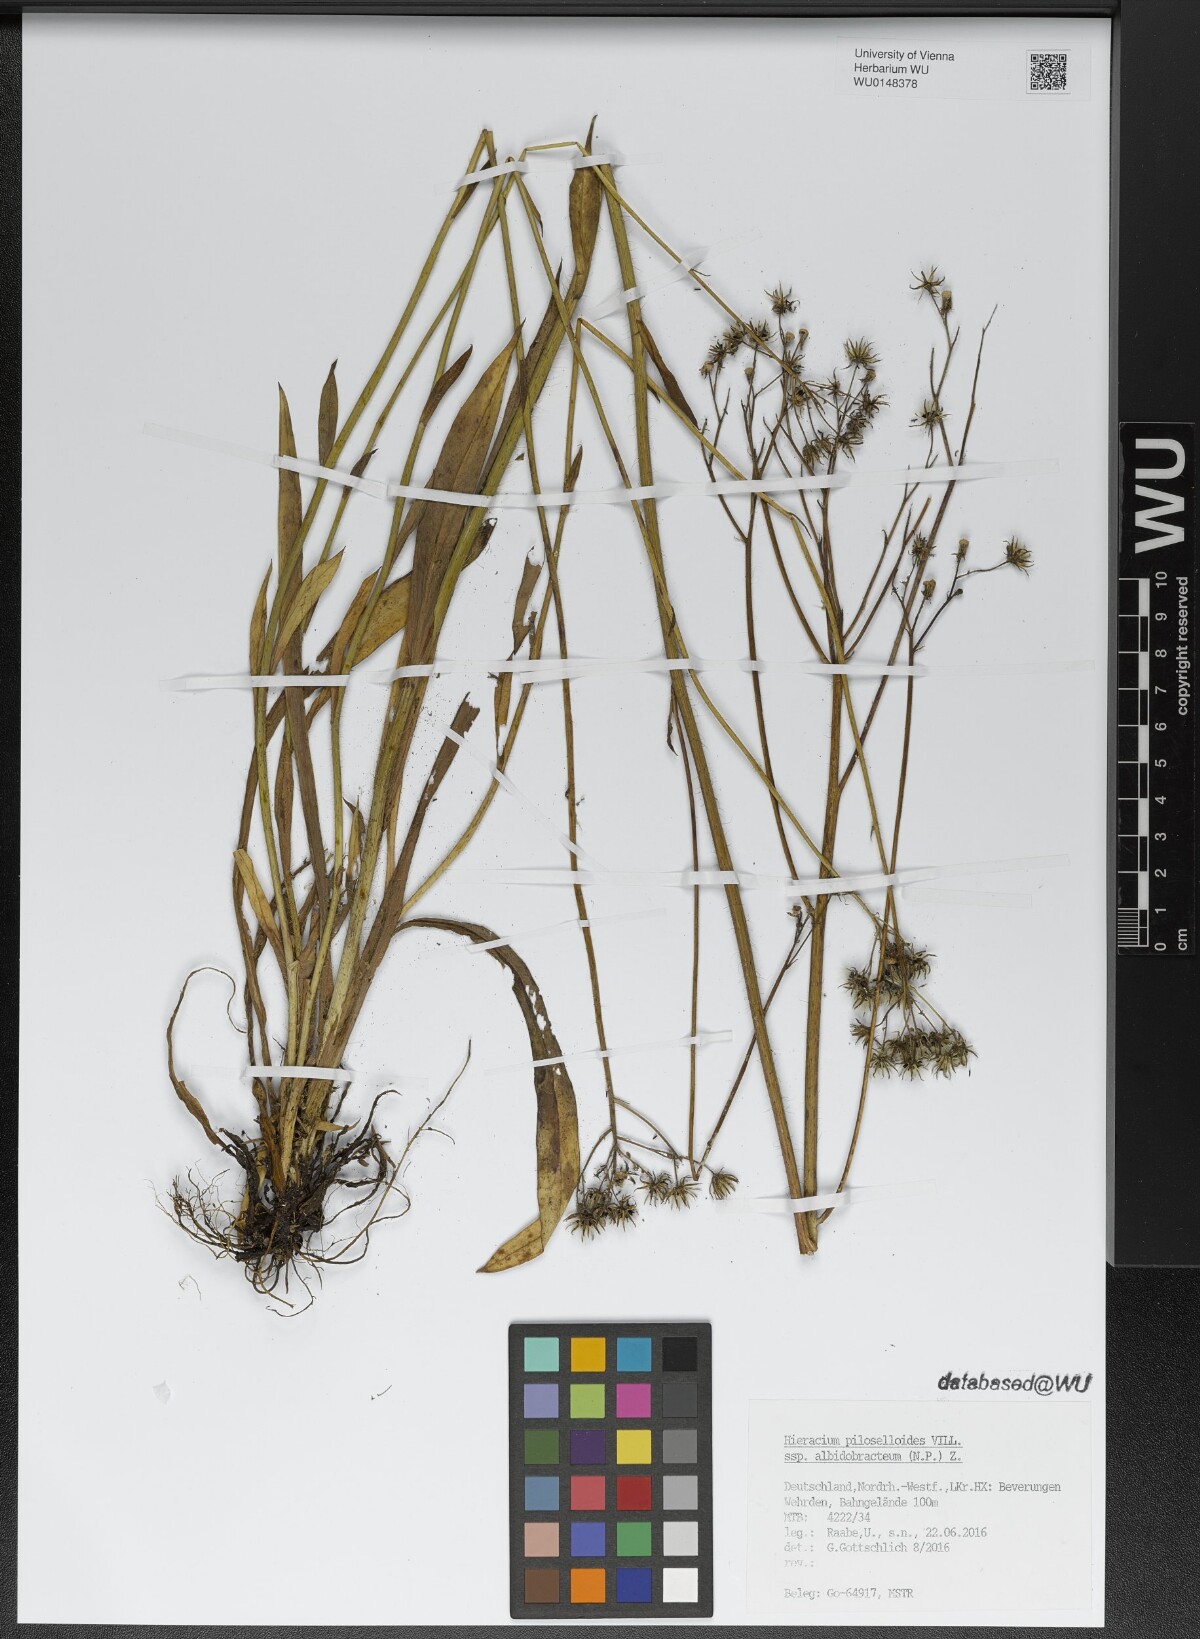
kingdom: Plantae
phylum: Tracheophyta
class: Magnoliopsida
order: Asterales
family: Asteraceae
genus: Pilosella
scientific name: Pilosella piloselloides
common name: Glaucous king-devil
